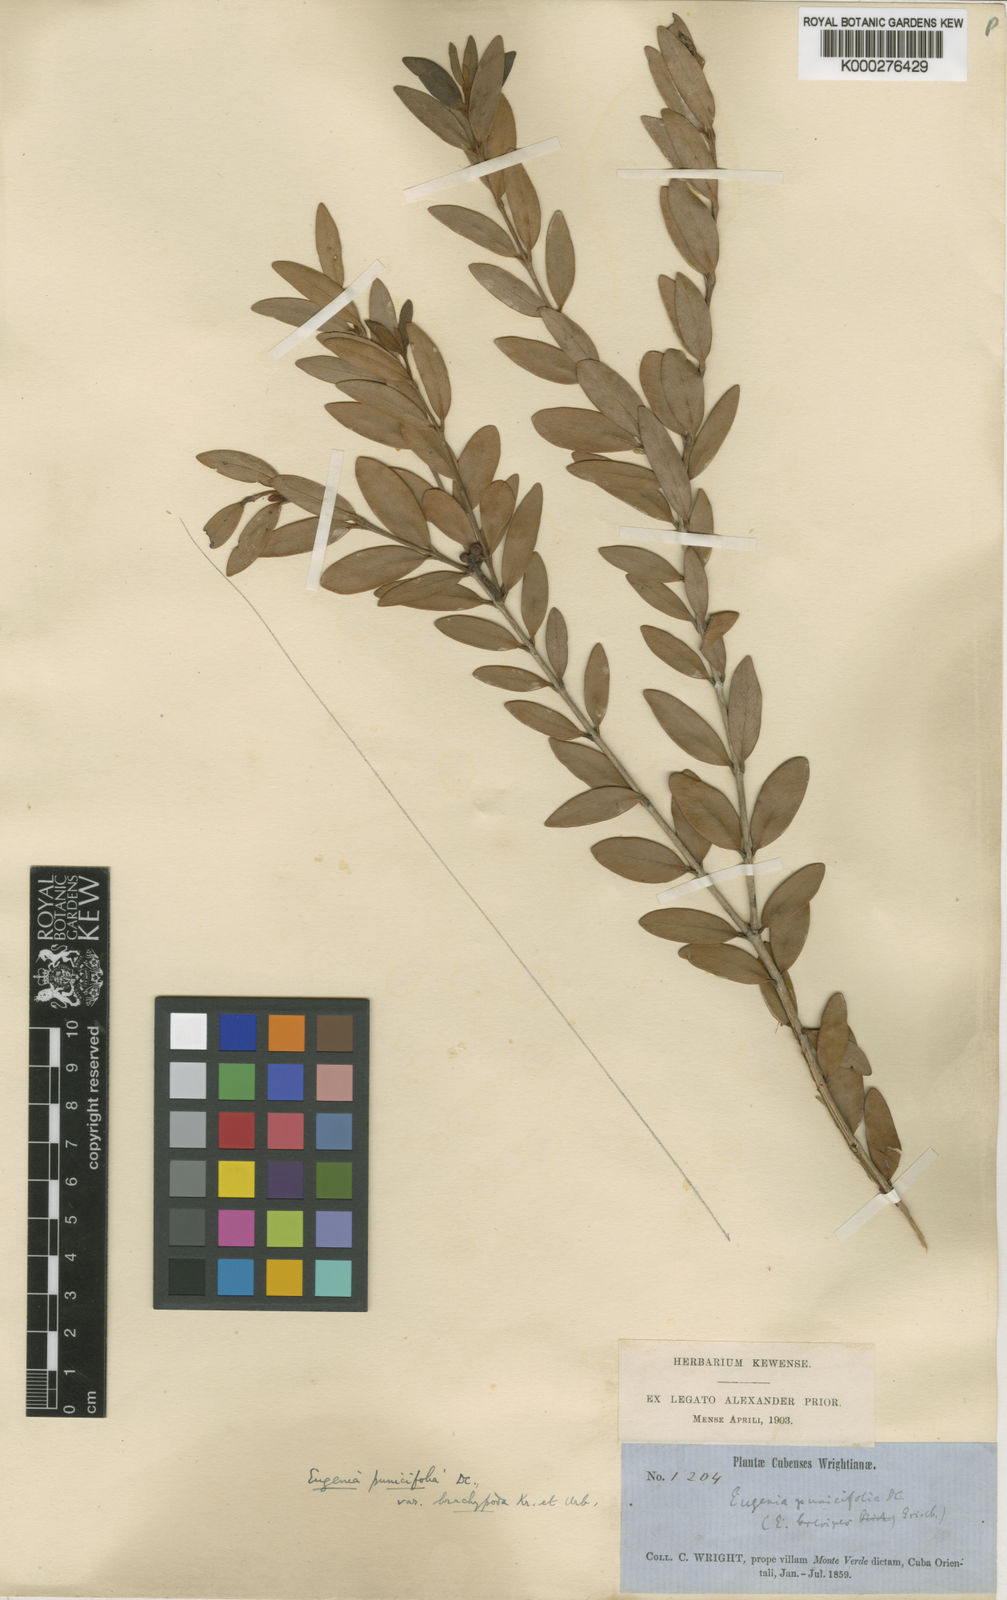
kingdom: Plantae
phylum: Tracheophyta
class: Magnoliopsida
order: Myrtales
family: Myrtaceae
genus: Eugenia
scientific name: Eugenia punicifolia
